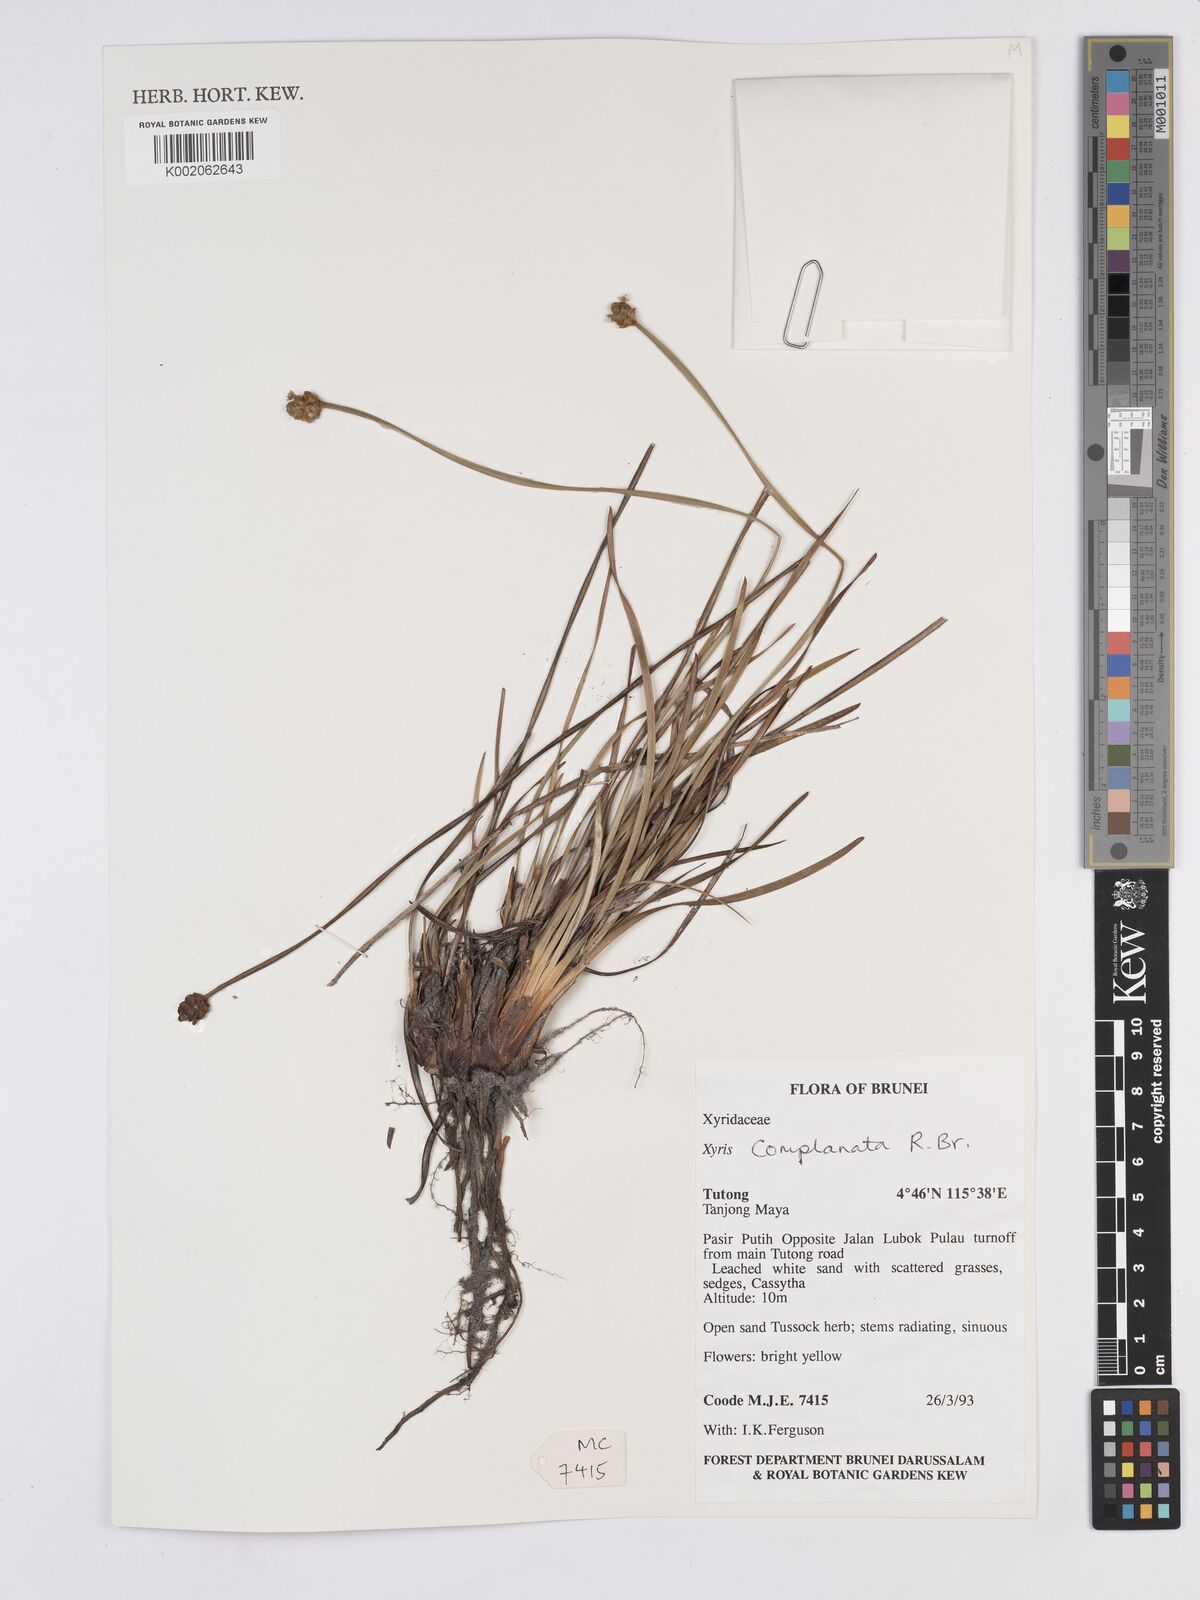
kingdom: Plantae
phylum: Tracheophyta
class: Liliopsida
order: Poales
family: Xyridaceae
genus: Xyris
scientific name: Xyris complanata
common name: Hawai'i yelloweyed grass
